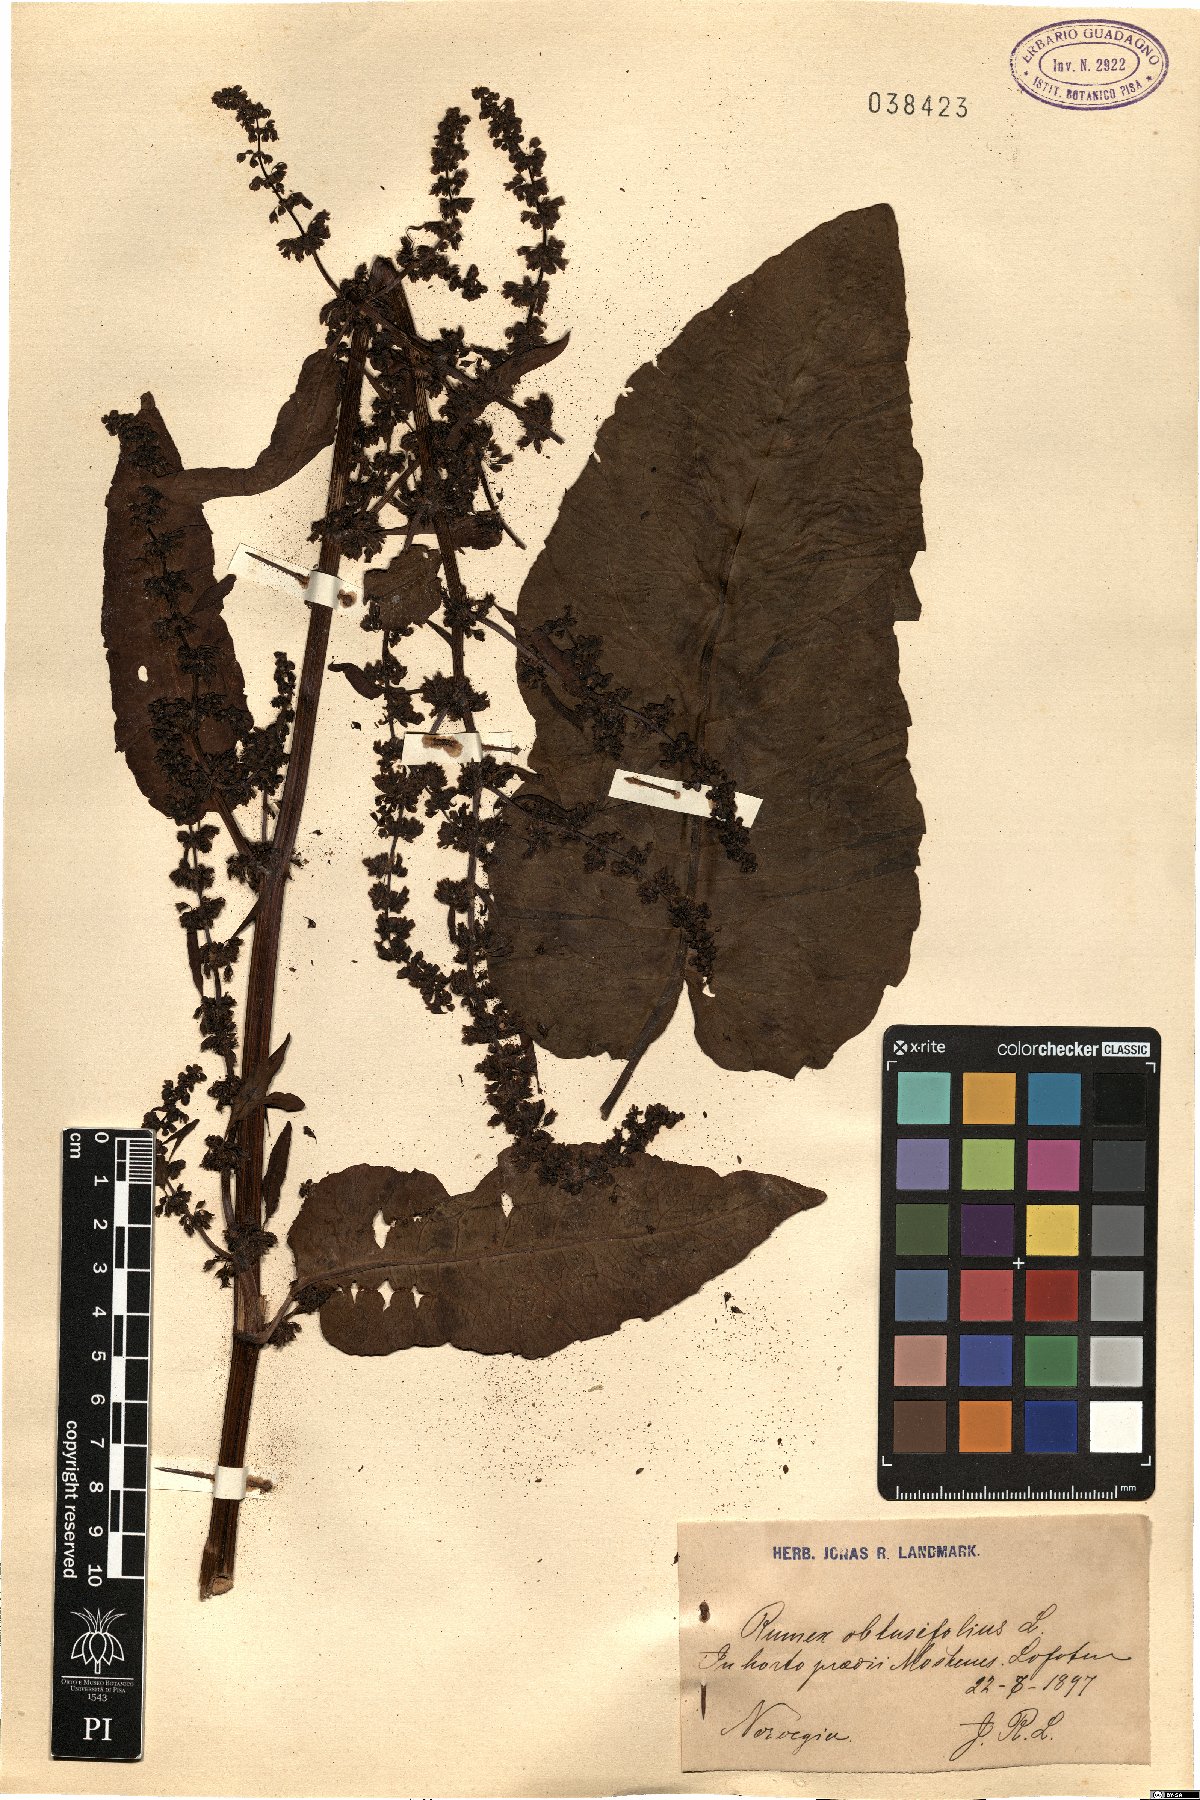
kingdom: Plantae
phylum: Tracheophyta
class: Magnoliopsida
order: Caryophyllales
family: Polygonaceae
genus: Rumex
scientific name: Rumex obtusifolius
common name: Bitter dock
